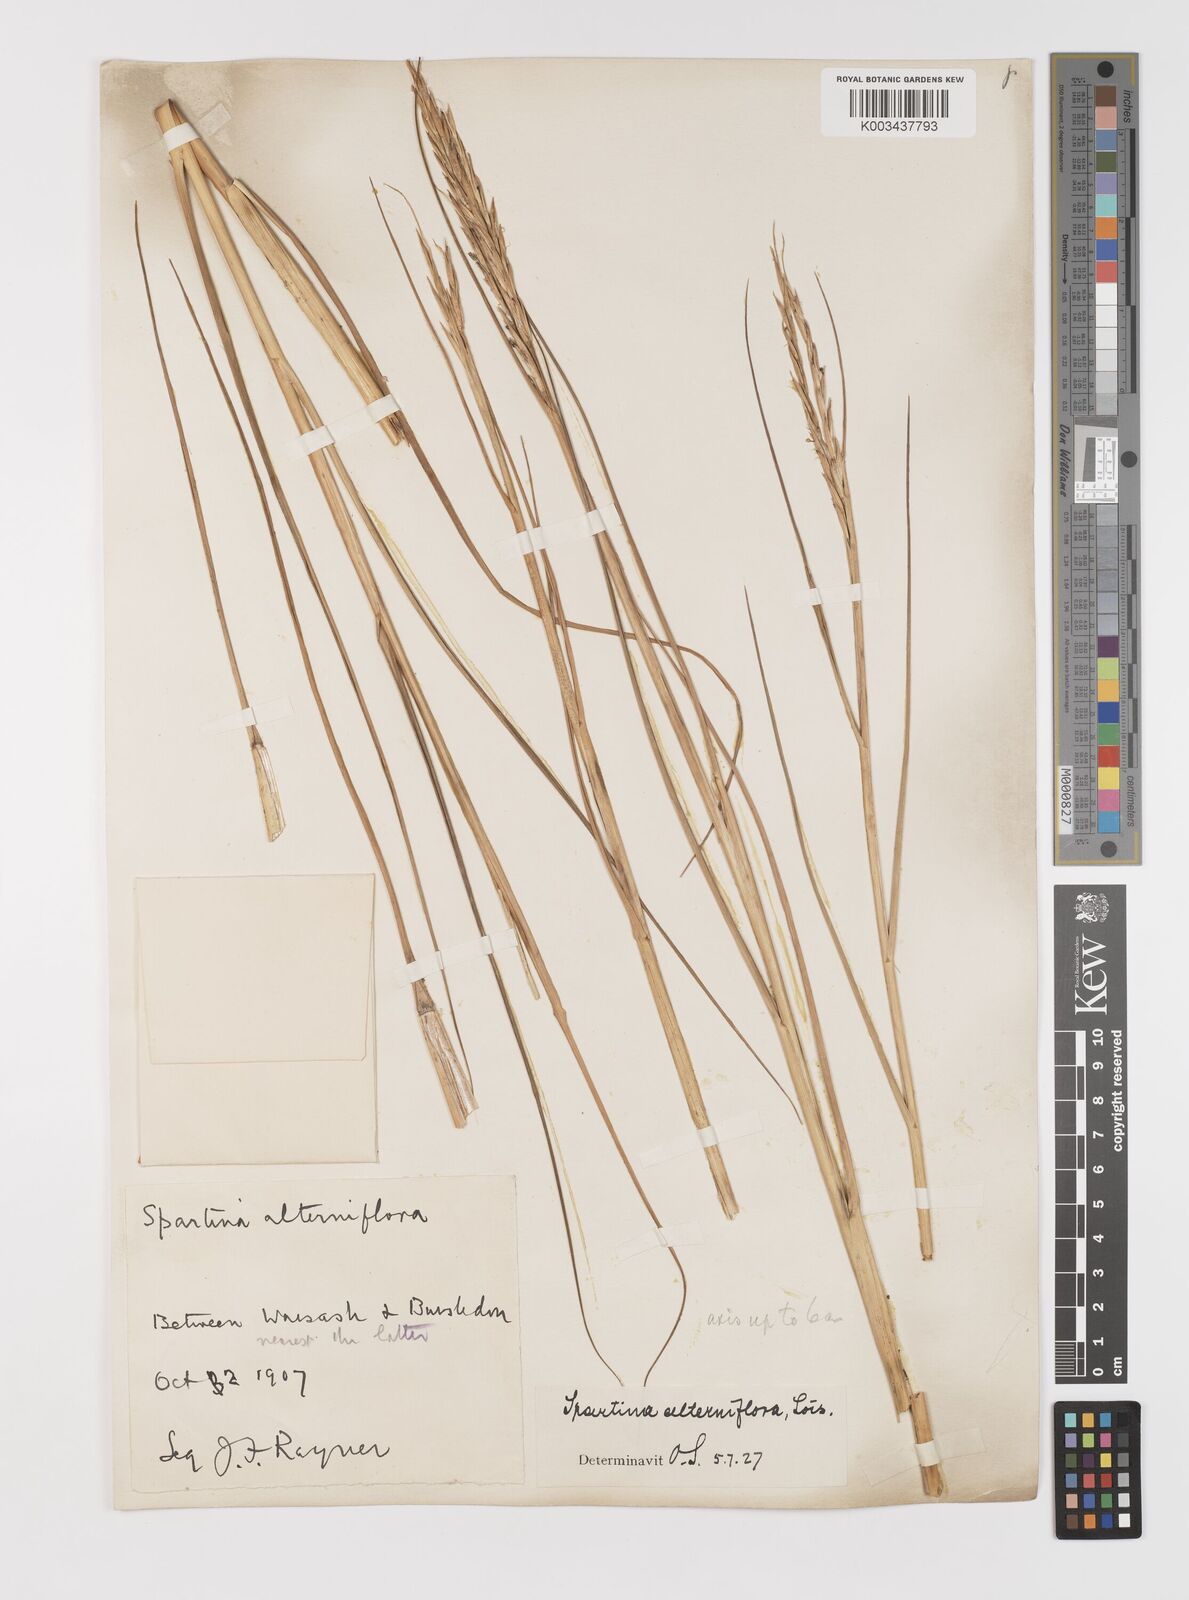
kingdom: Plantae
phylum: Tracheophyta
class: Liliopsida
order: Poales
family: Poaceae
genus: Sporobolus
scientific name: Sporobolus alterniflorus
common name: Atlantic cordgrass
